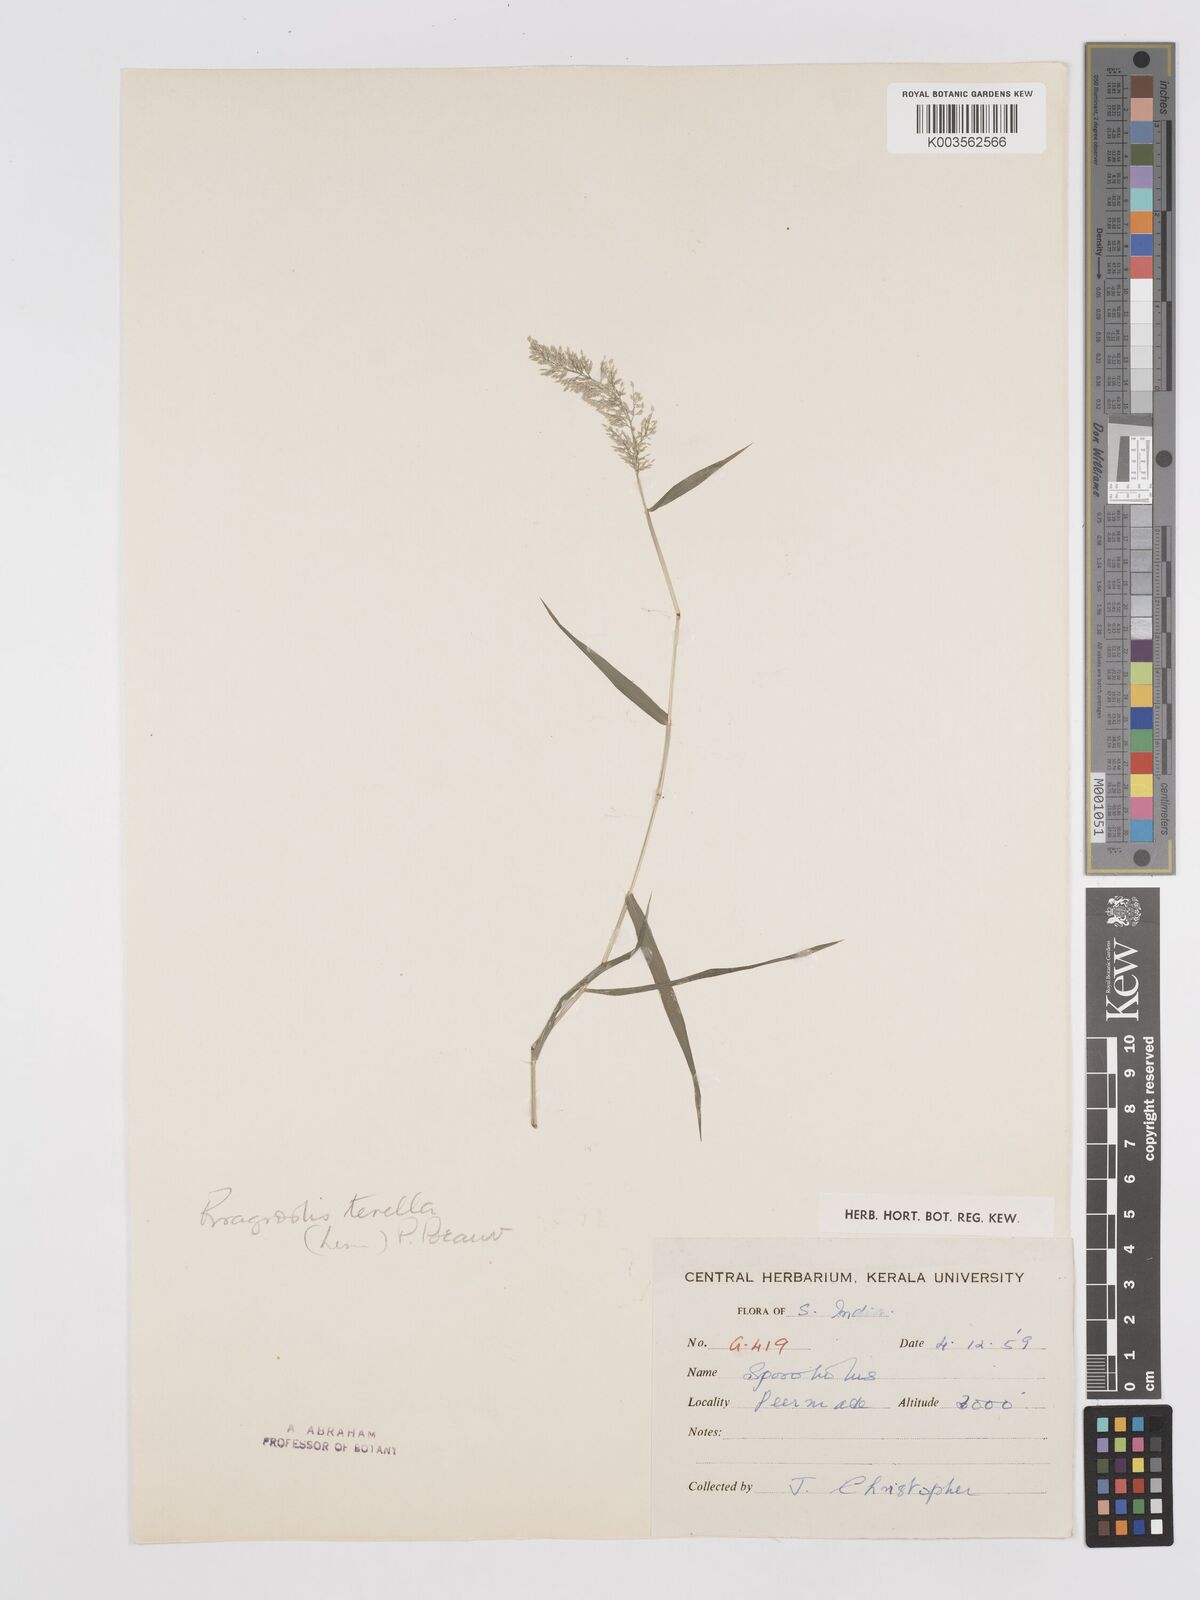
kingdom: Plantae
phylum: Tracheophyta
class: Liliopsida
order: Poales
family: Poaceae
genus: Eragrostis
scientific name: Eragrostis tenella
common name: Japanese lovegrass
